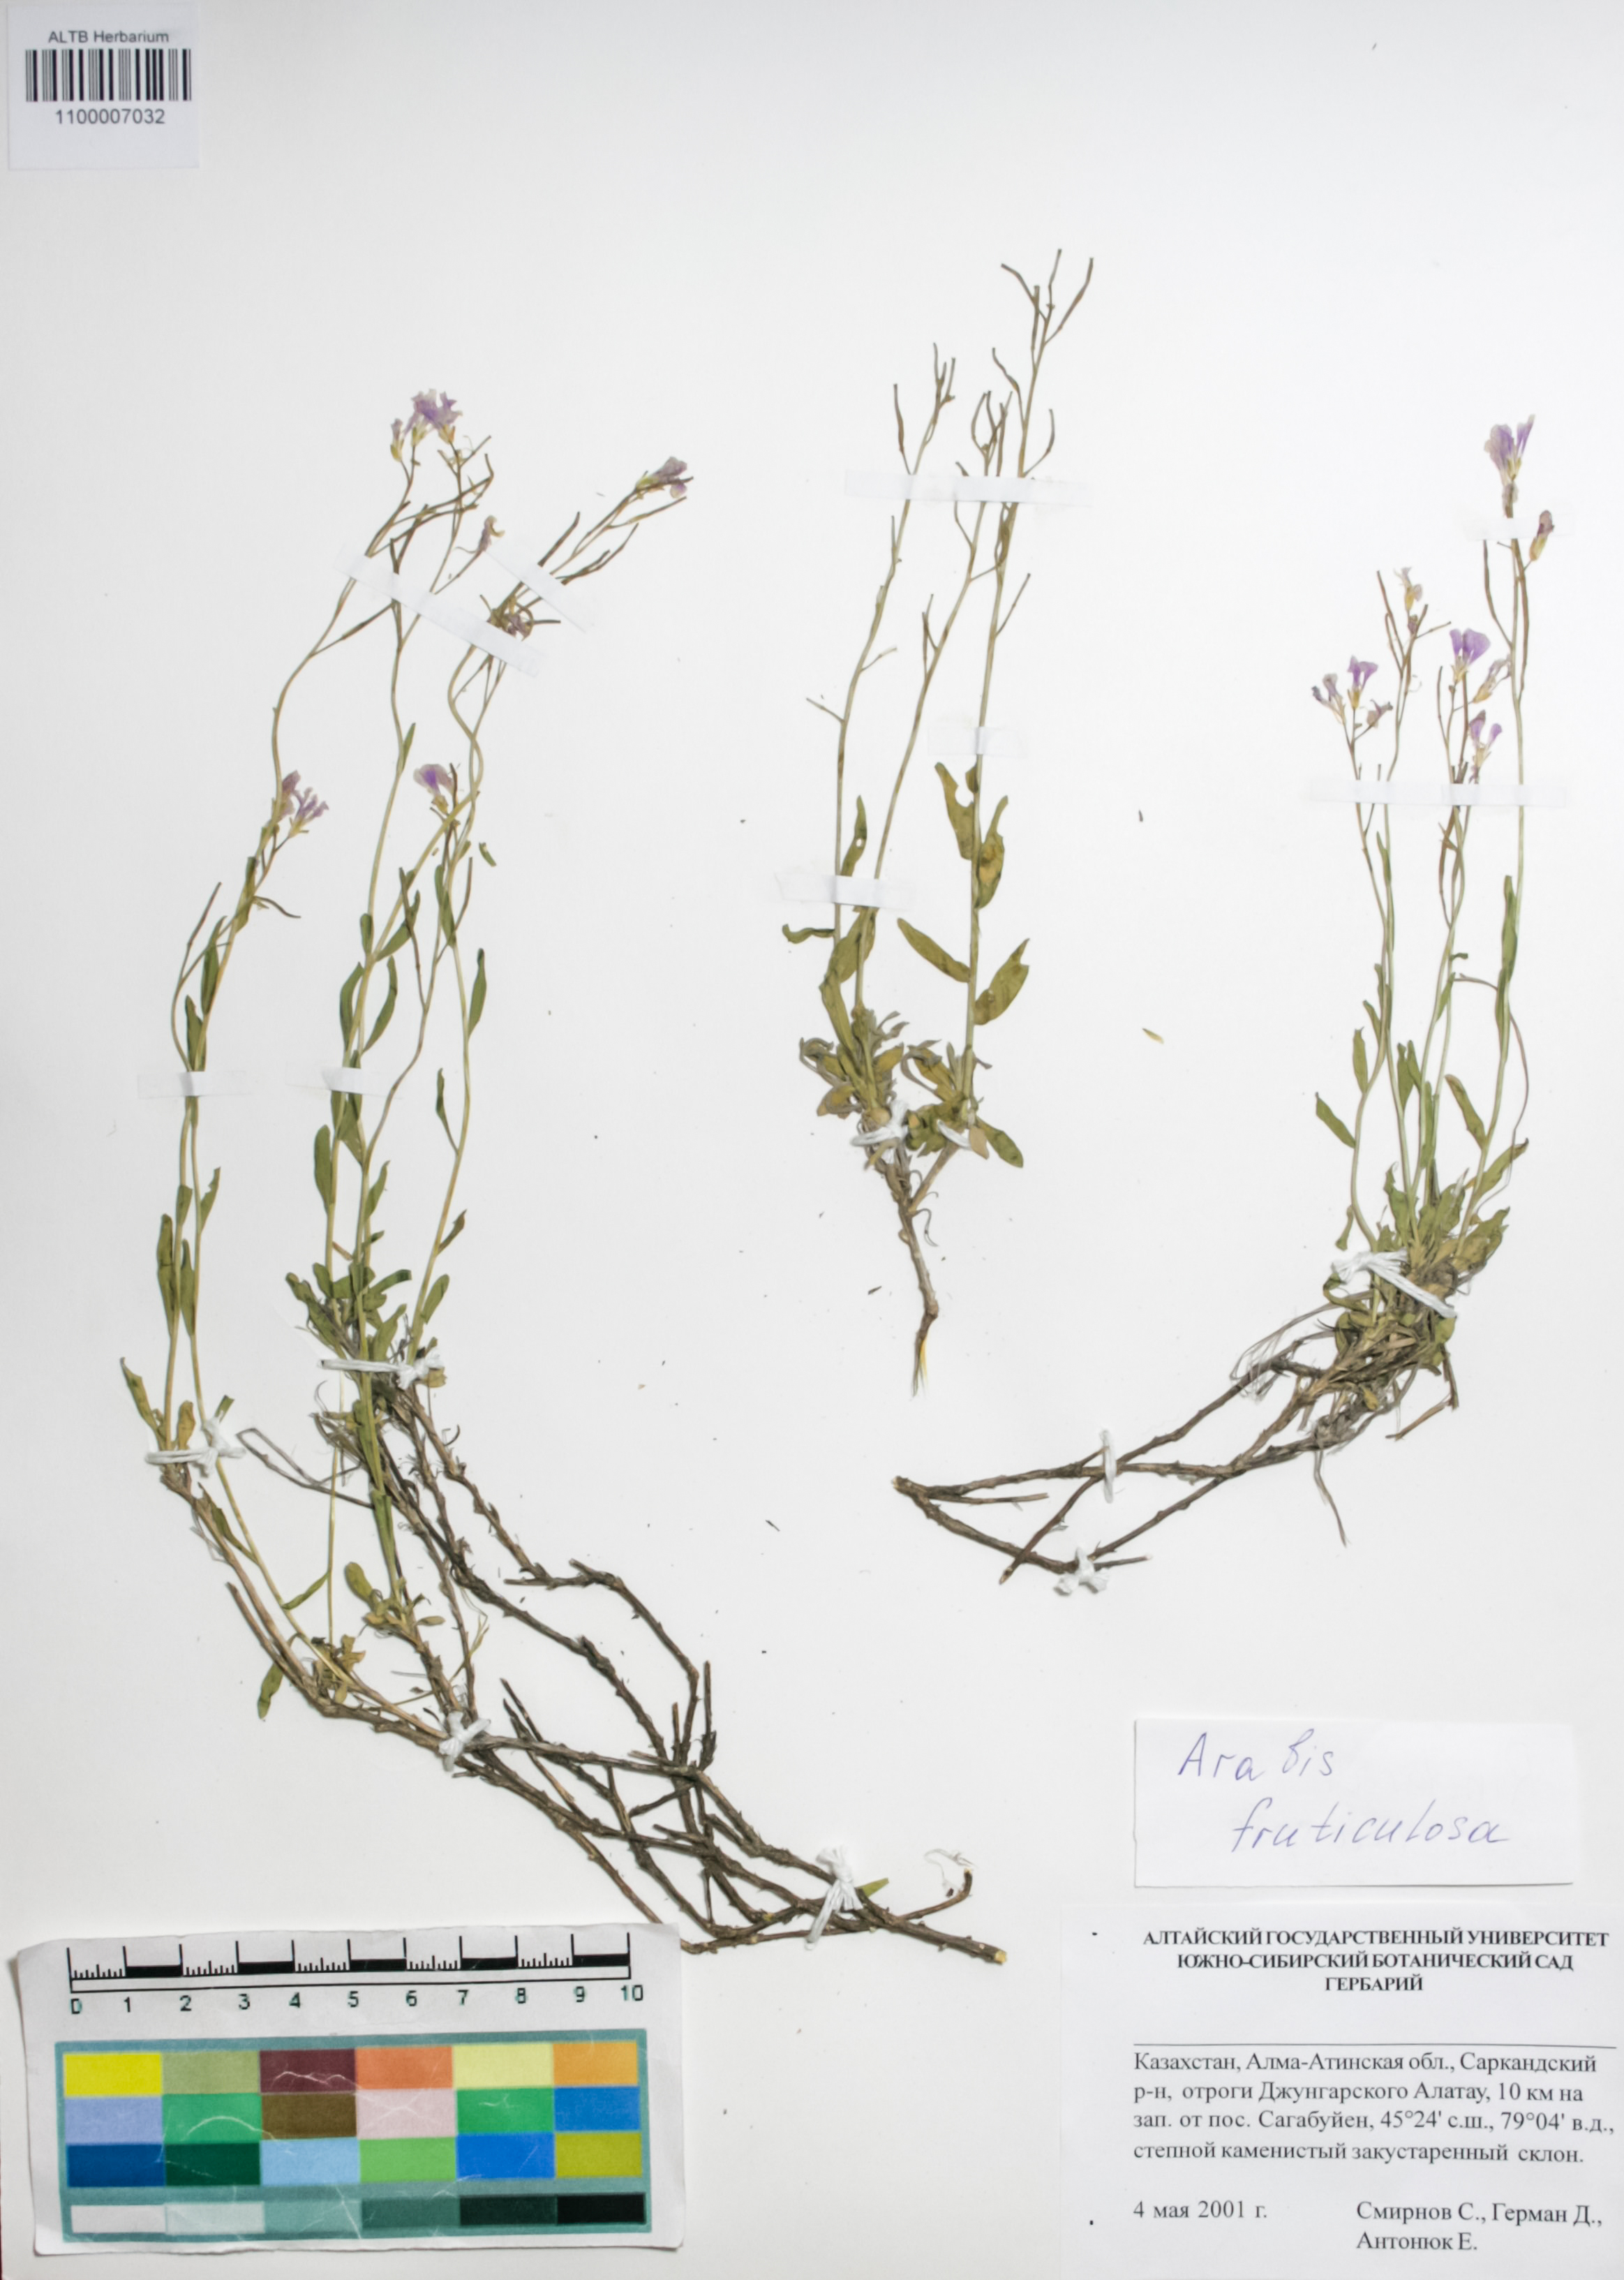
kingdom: Plantae
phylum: Tracheophyta
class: Magnoliopsida
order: Brassicales
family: Brassicaceae
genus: Dendroarabis
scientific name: Dendroarabis fruticulosa
